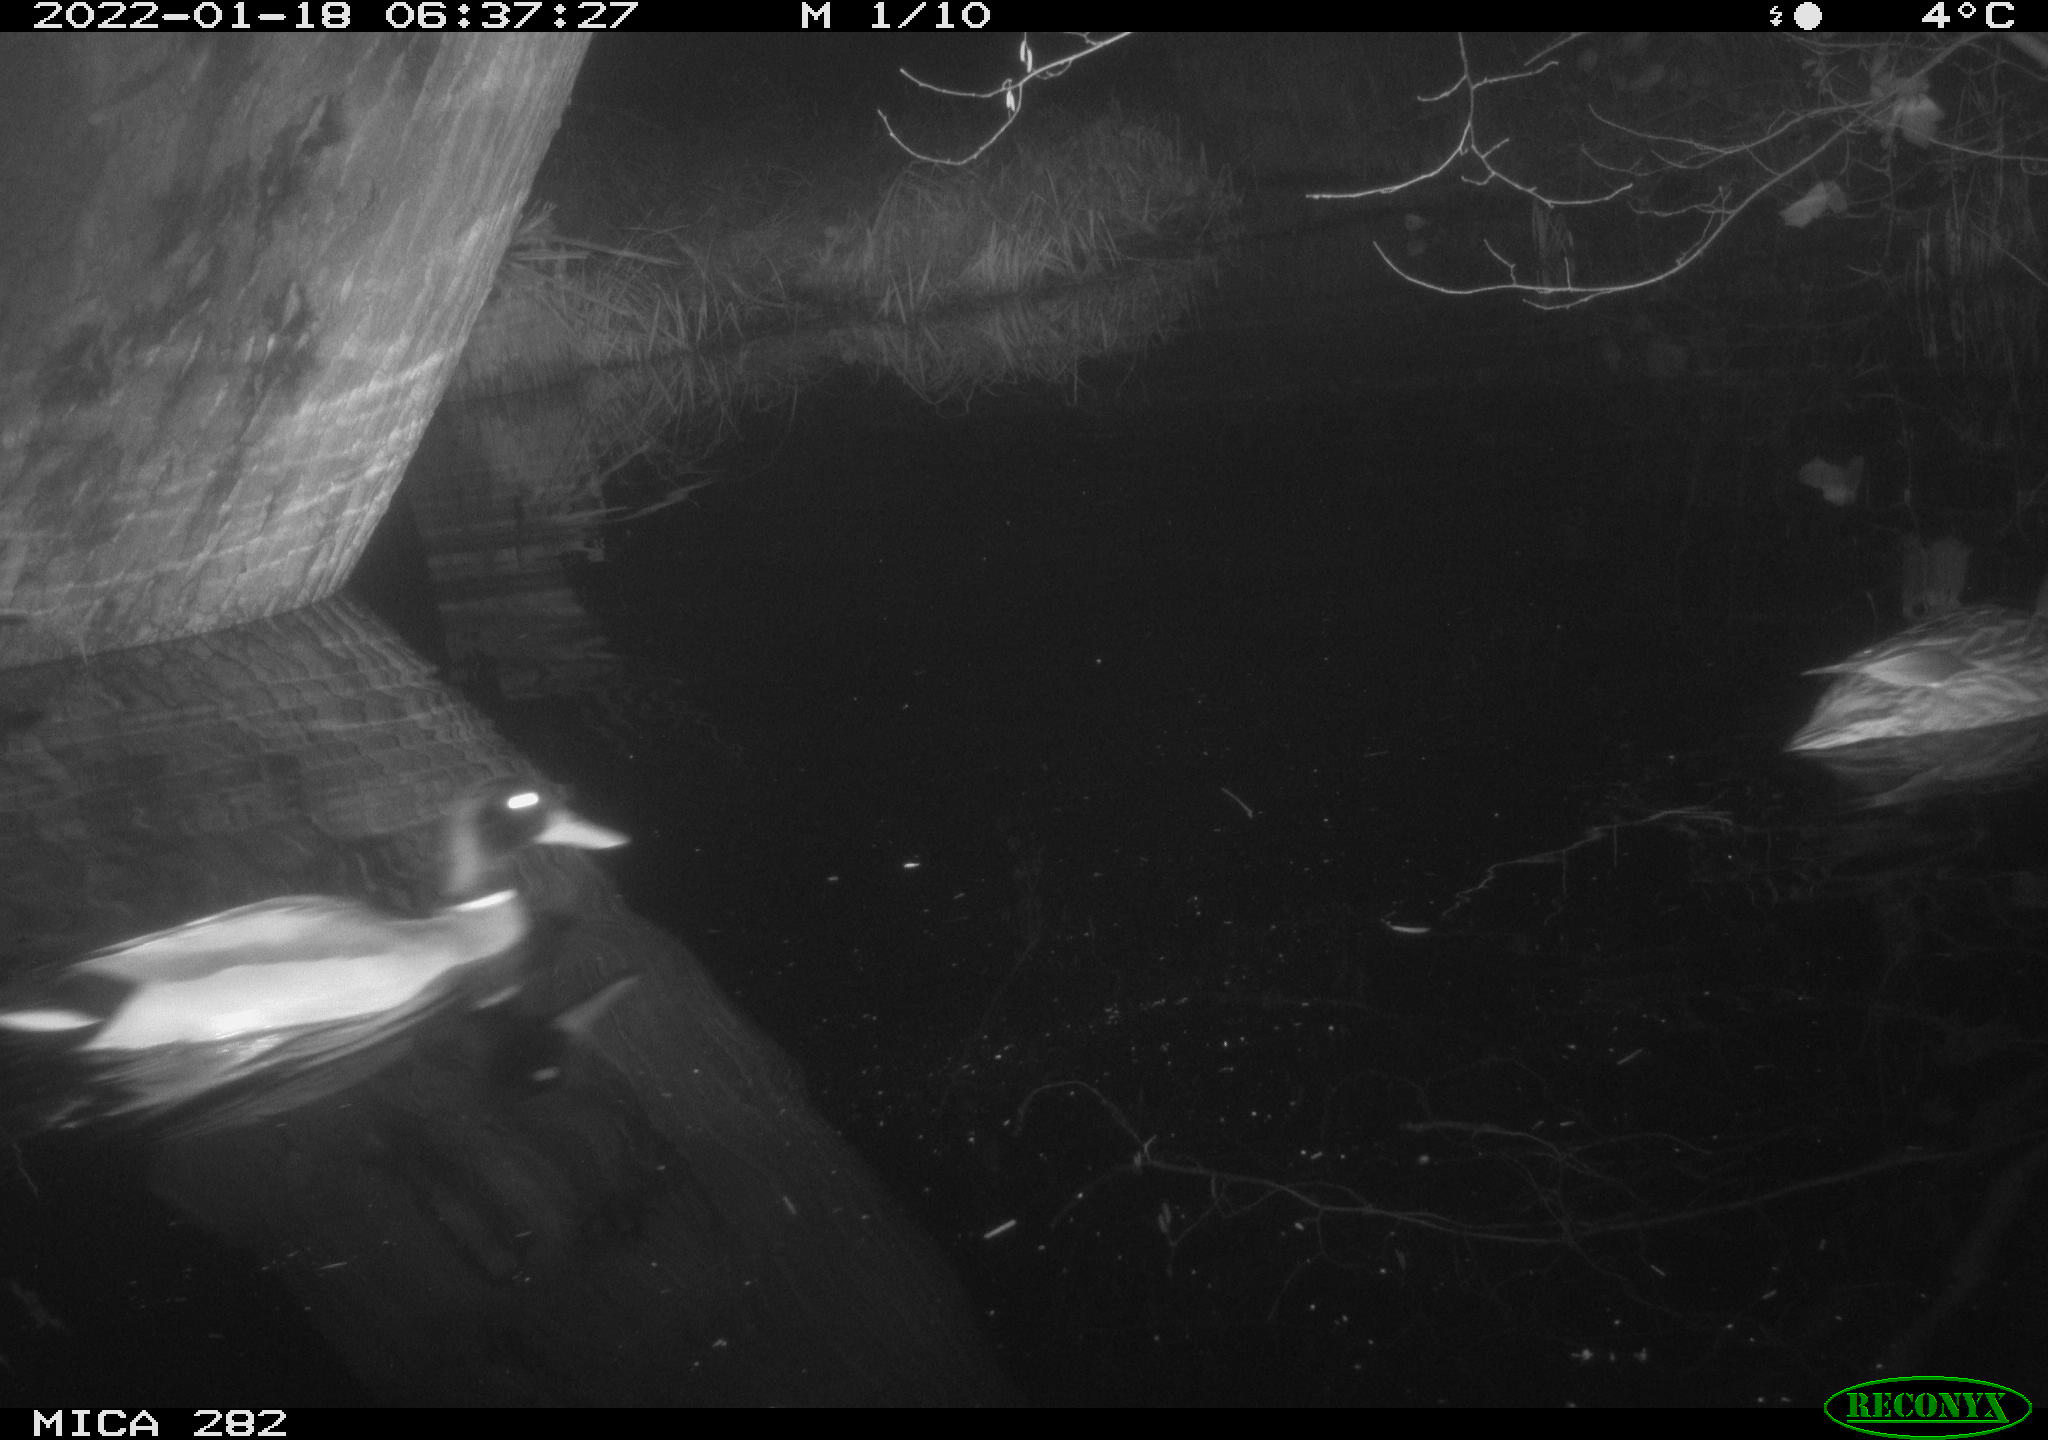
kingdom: Animalia
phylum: Chordata
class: Aves
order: Anseriformes
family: Anatidae
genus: Anas
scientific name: Anas platyrhynchos
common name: Mallard
